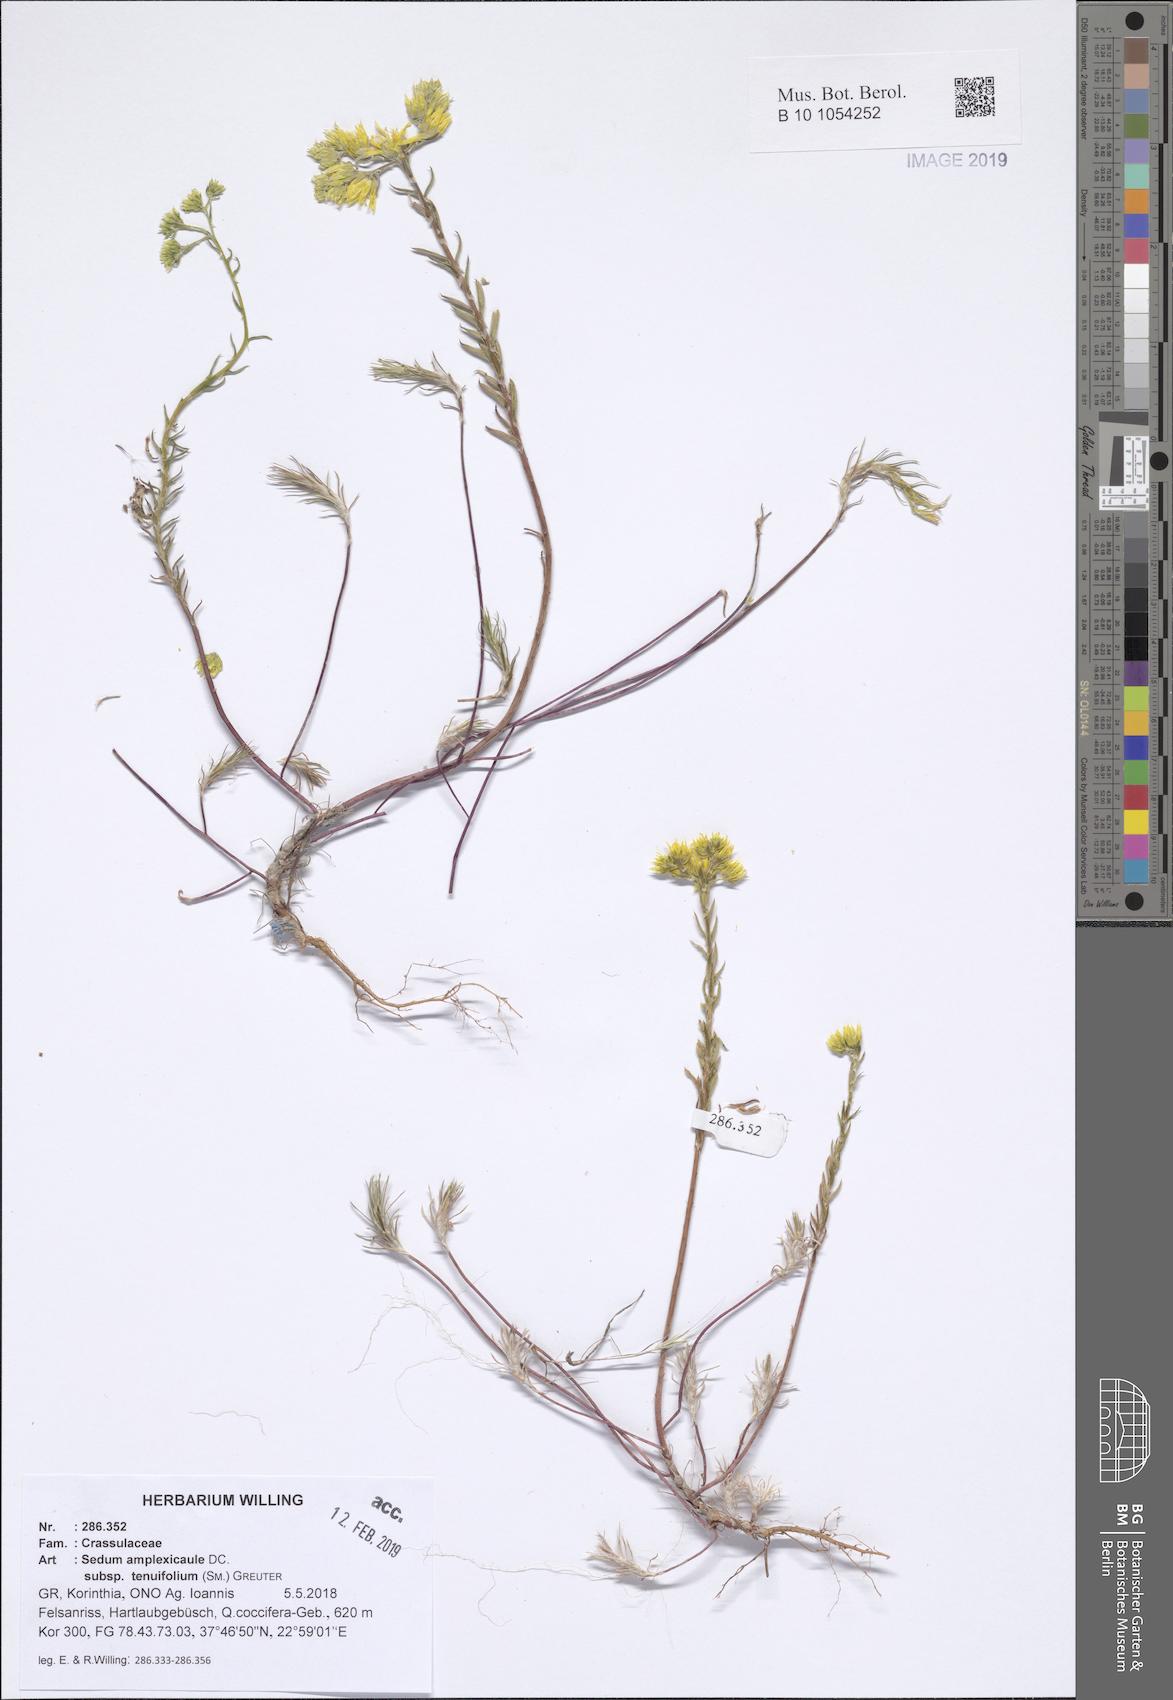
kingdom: Plantae
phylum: Tracheophyta
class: Magnoliopsida
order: Saxifragales
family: Crassulaceae
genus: Petrosedum
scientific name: Petrosedum tenuifolium
